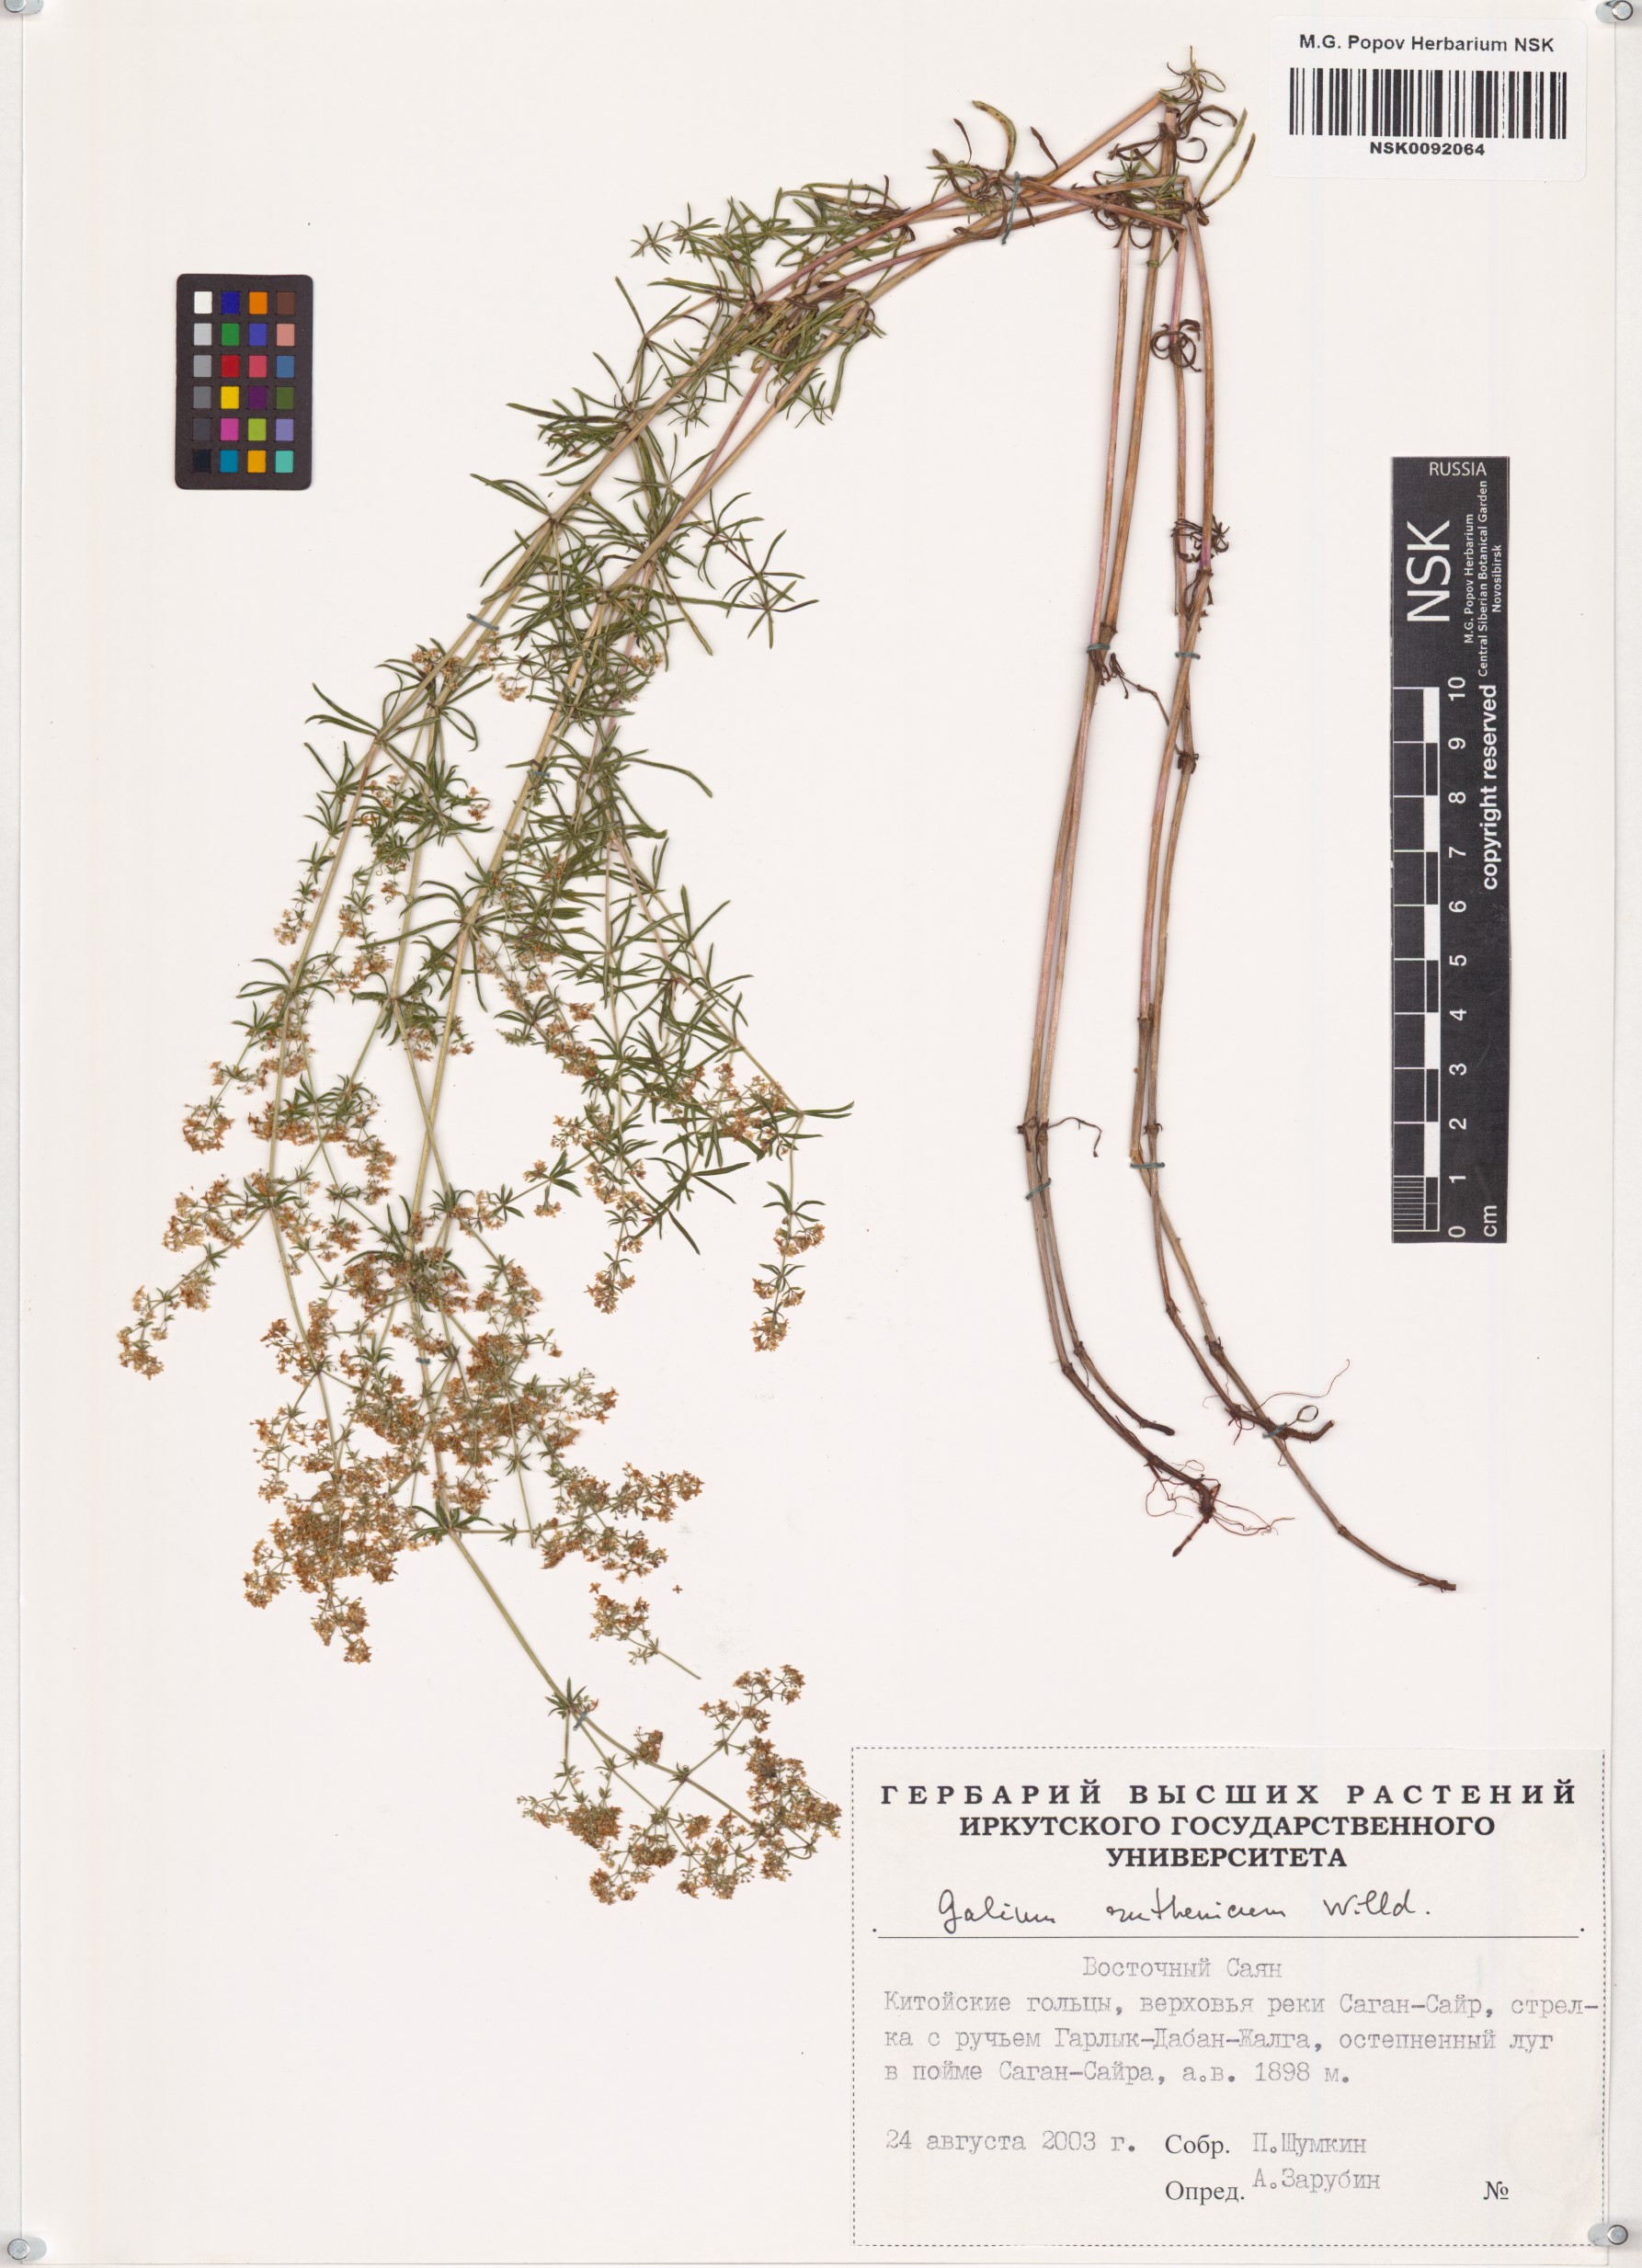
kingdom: Plantae
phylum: Tracheophyta
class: Magnoliopsida
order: Gentianales
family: Rubiaceae
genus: Galium
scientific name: Galium verum
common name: Lady's bedstraw
